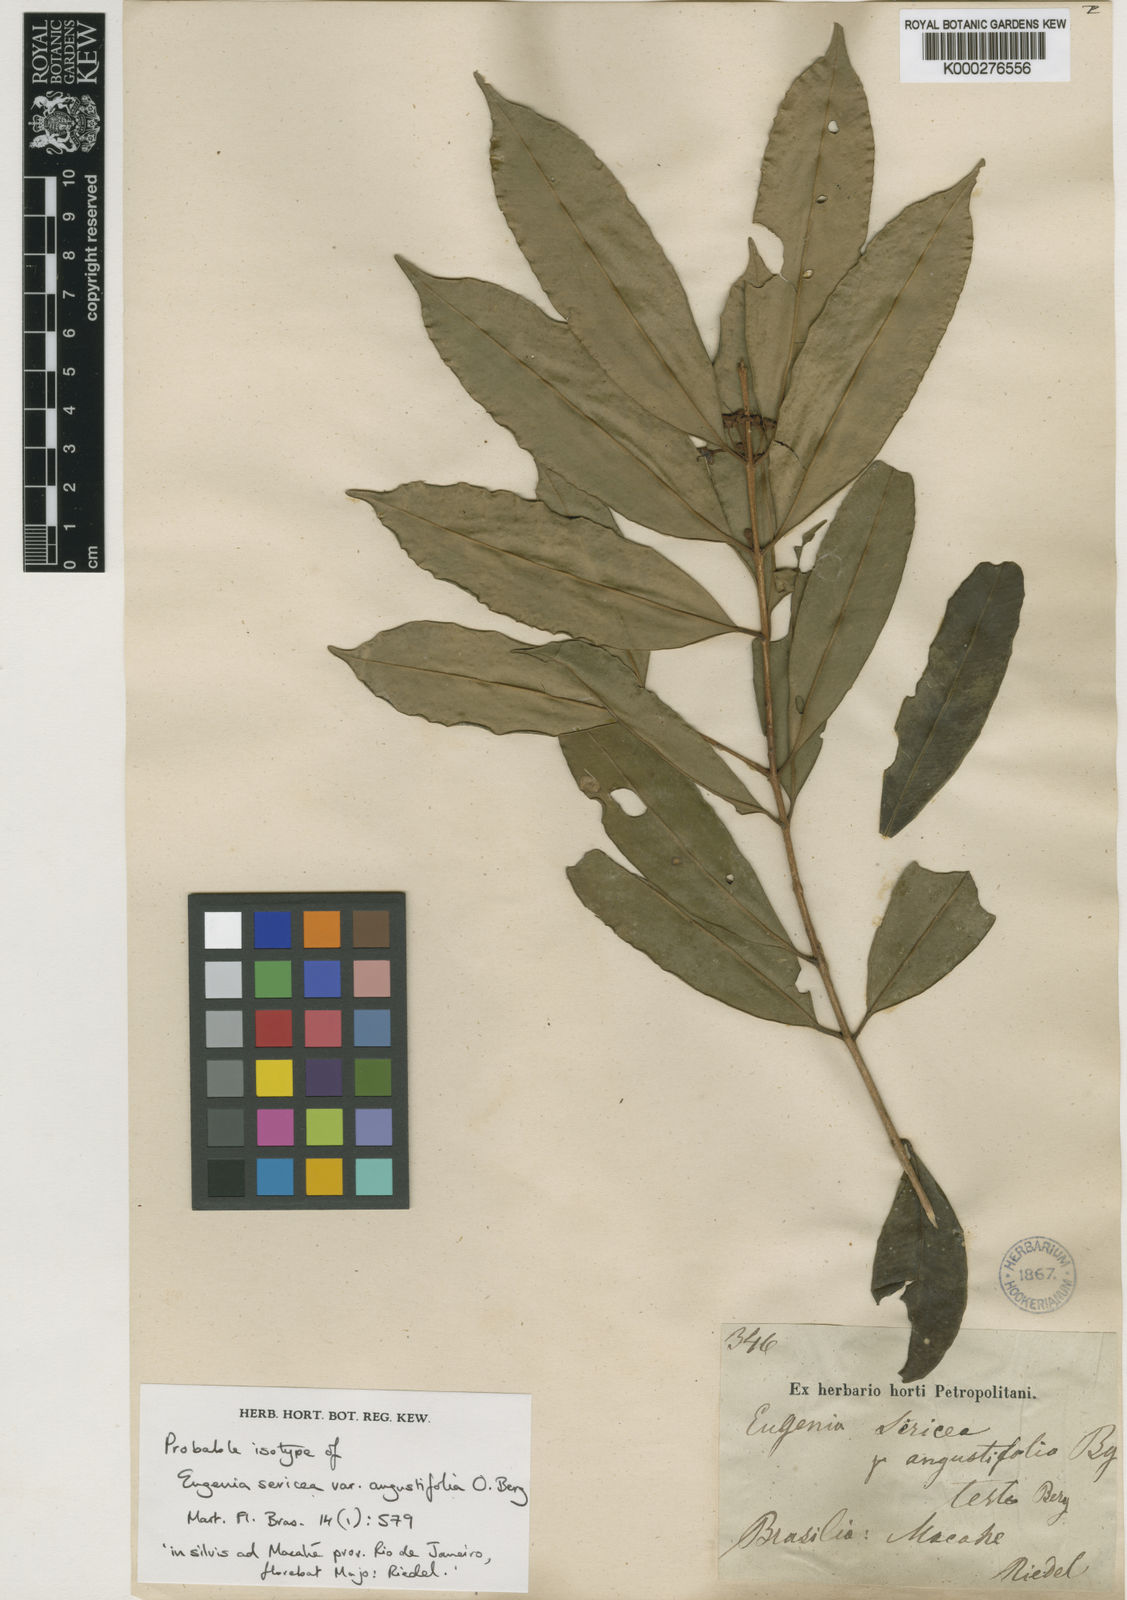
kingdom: Plantae
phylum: Tracheophyta
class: Magnoliopsida
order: Myrtales
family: Myrtaceae
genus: Eugenia
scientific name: Eugenia pisiformis
